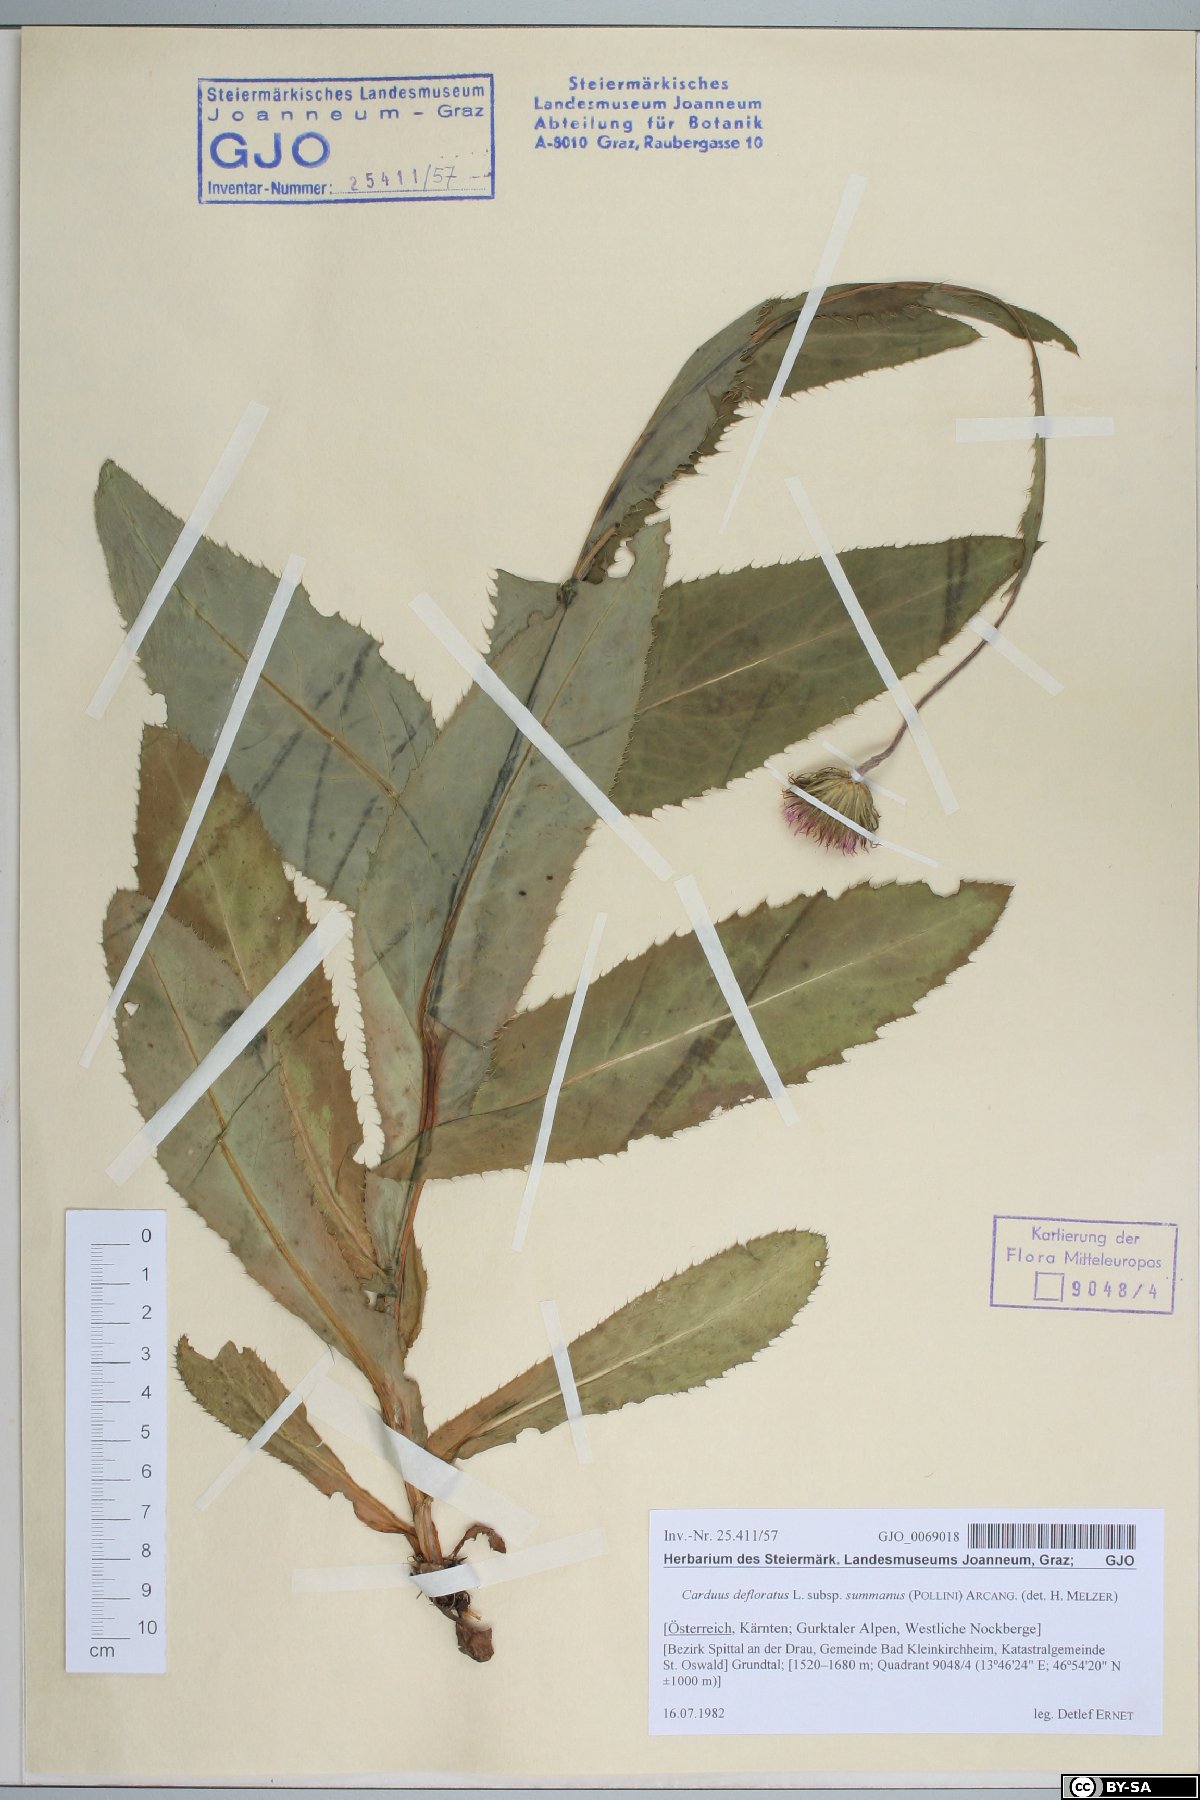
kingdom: Plantae
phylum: Tracheophyta
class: Magnoliopsida
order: Asterales
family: Asteraceae
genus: Carduus
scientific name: Carduus defloratus
